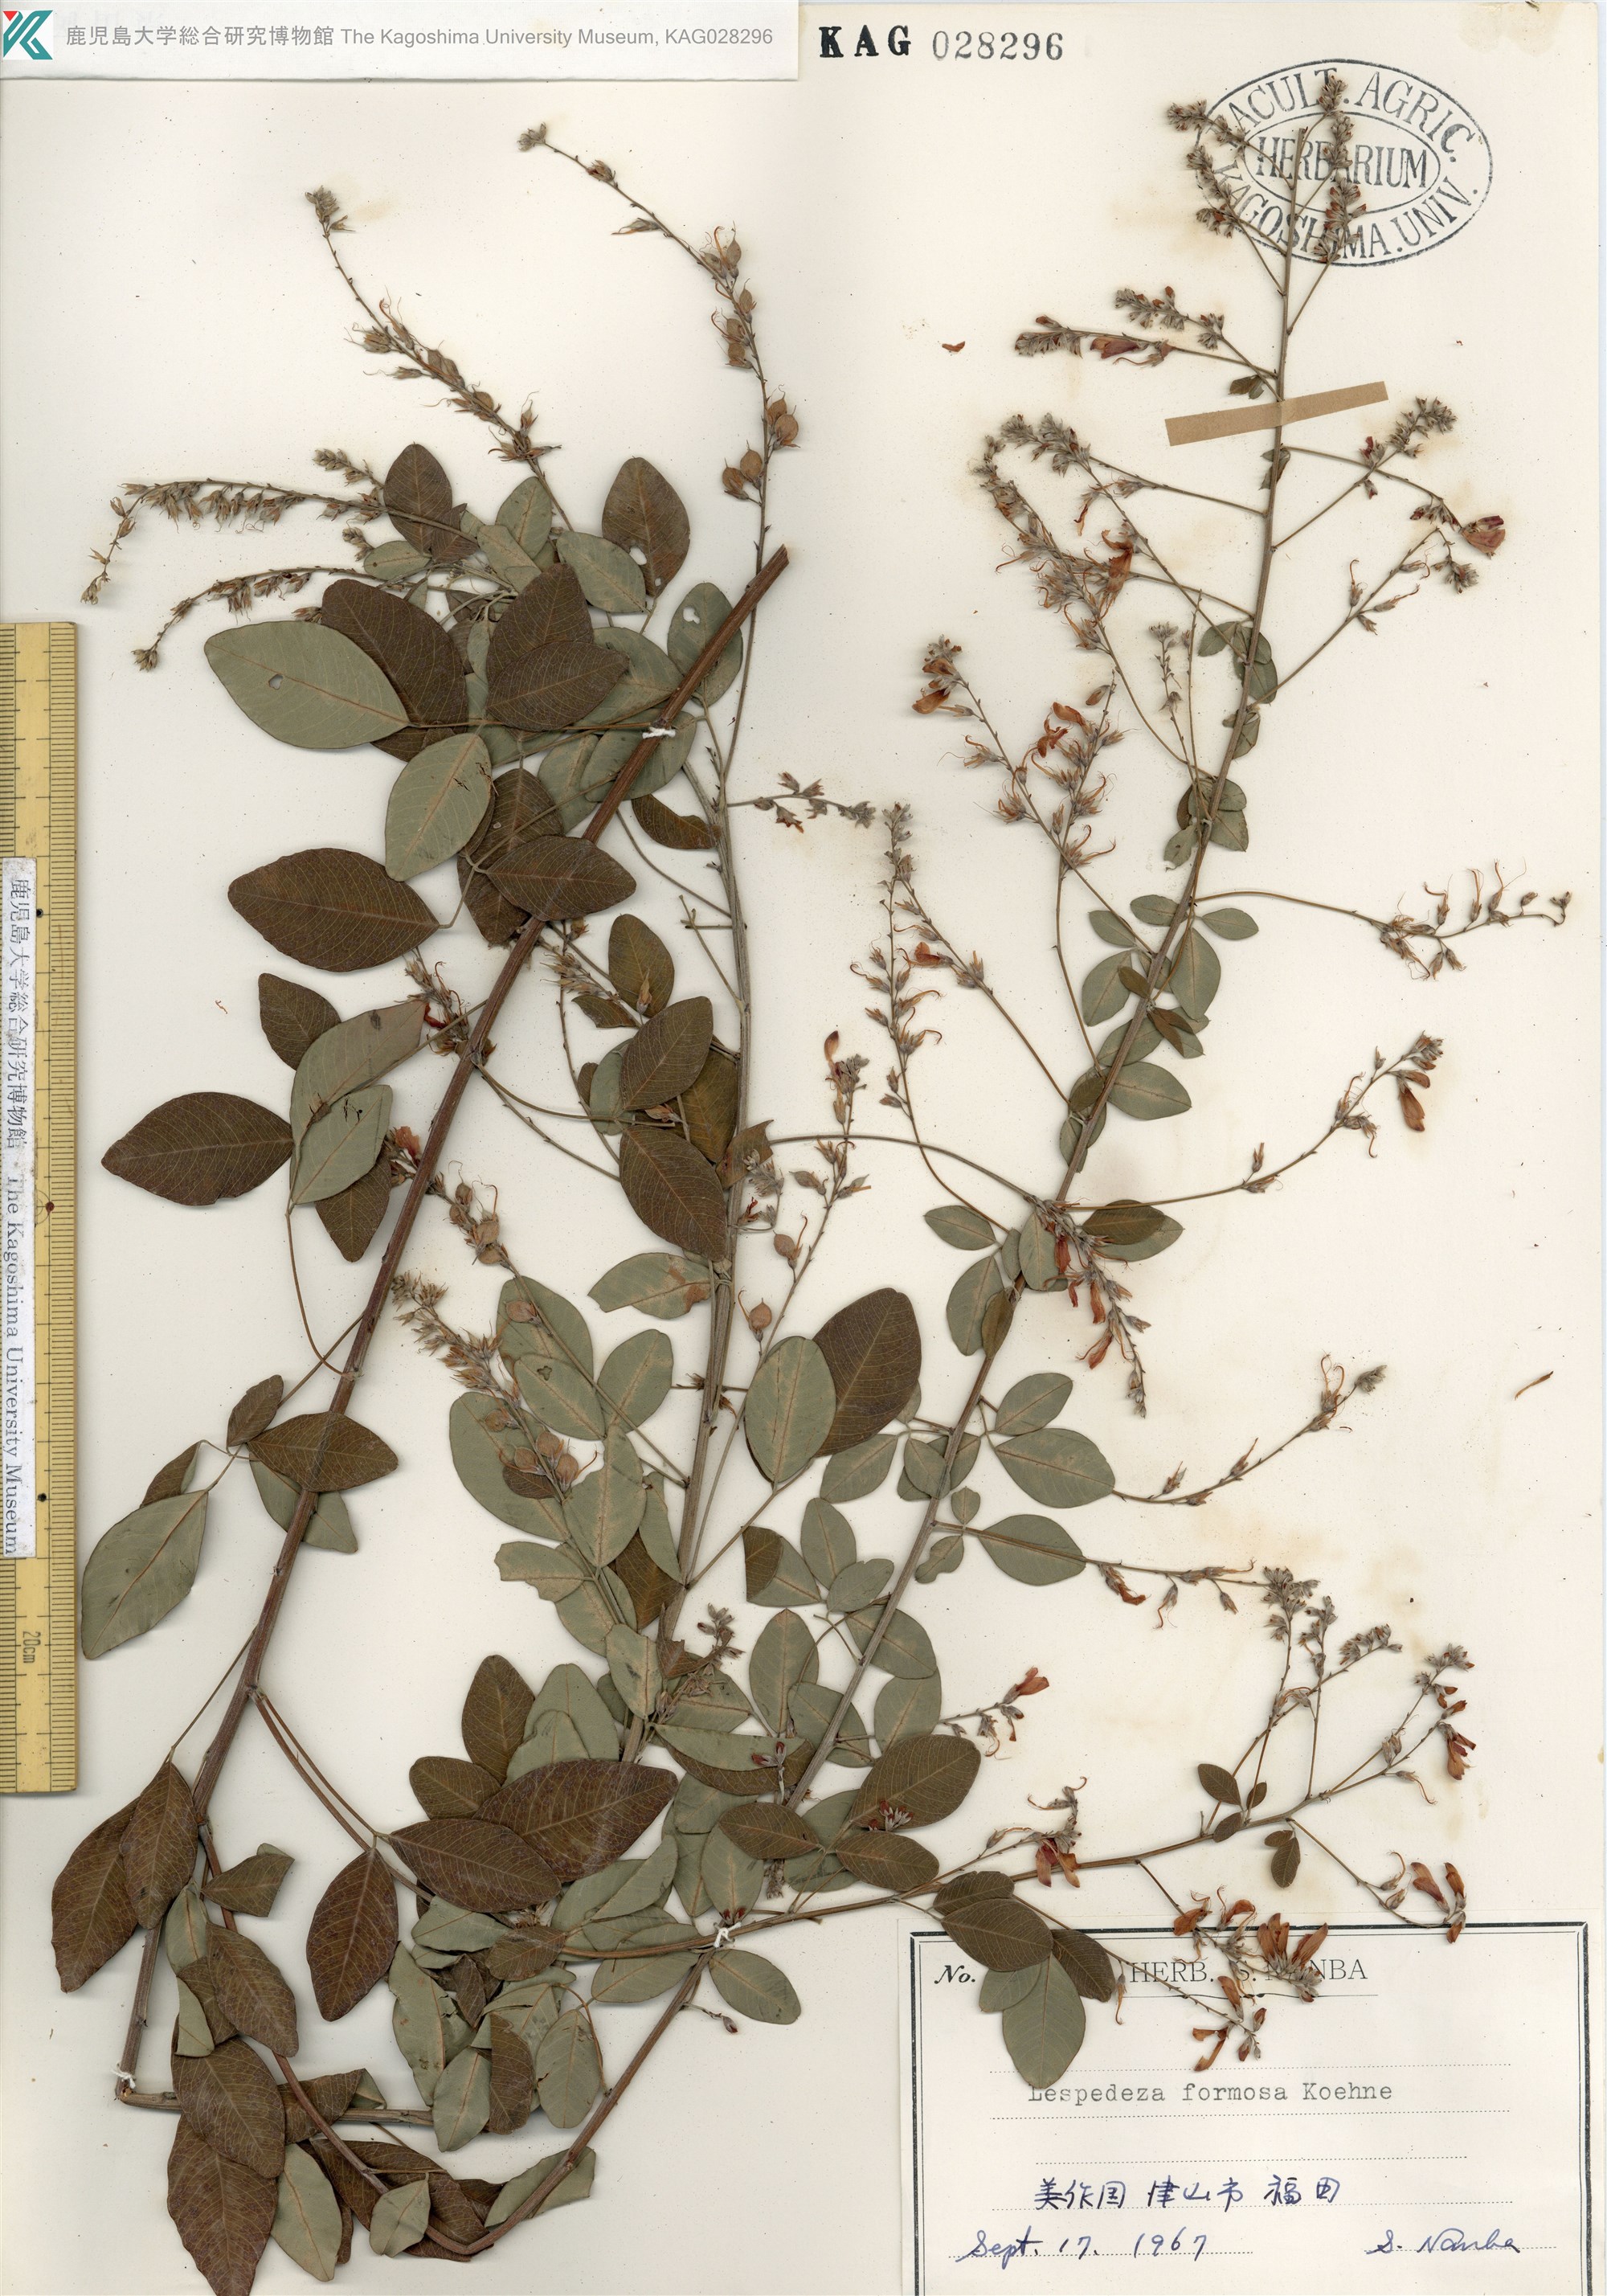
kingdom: Plantae
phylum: Tracheophyta
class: Magnoliopsida
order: Fabales
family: Fabaceae
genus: Lespedeza
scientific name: Lespedeza thunbergii
